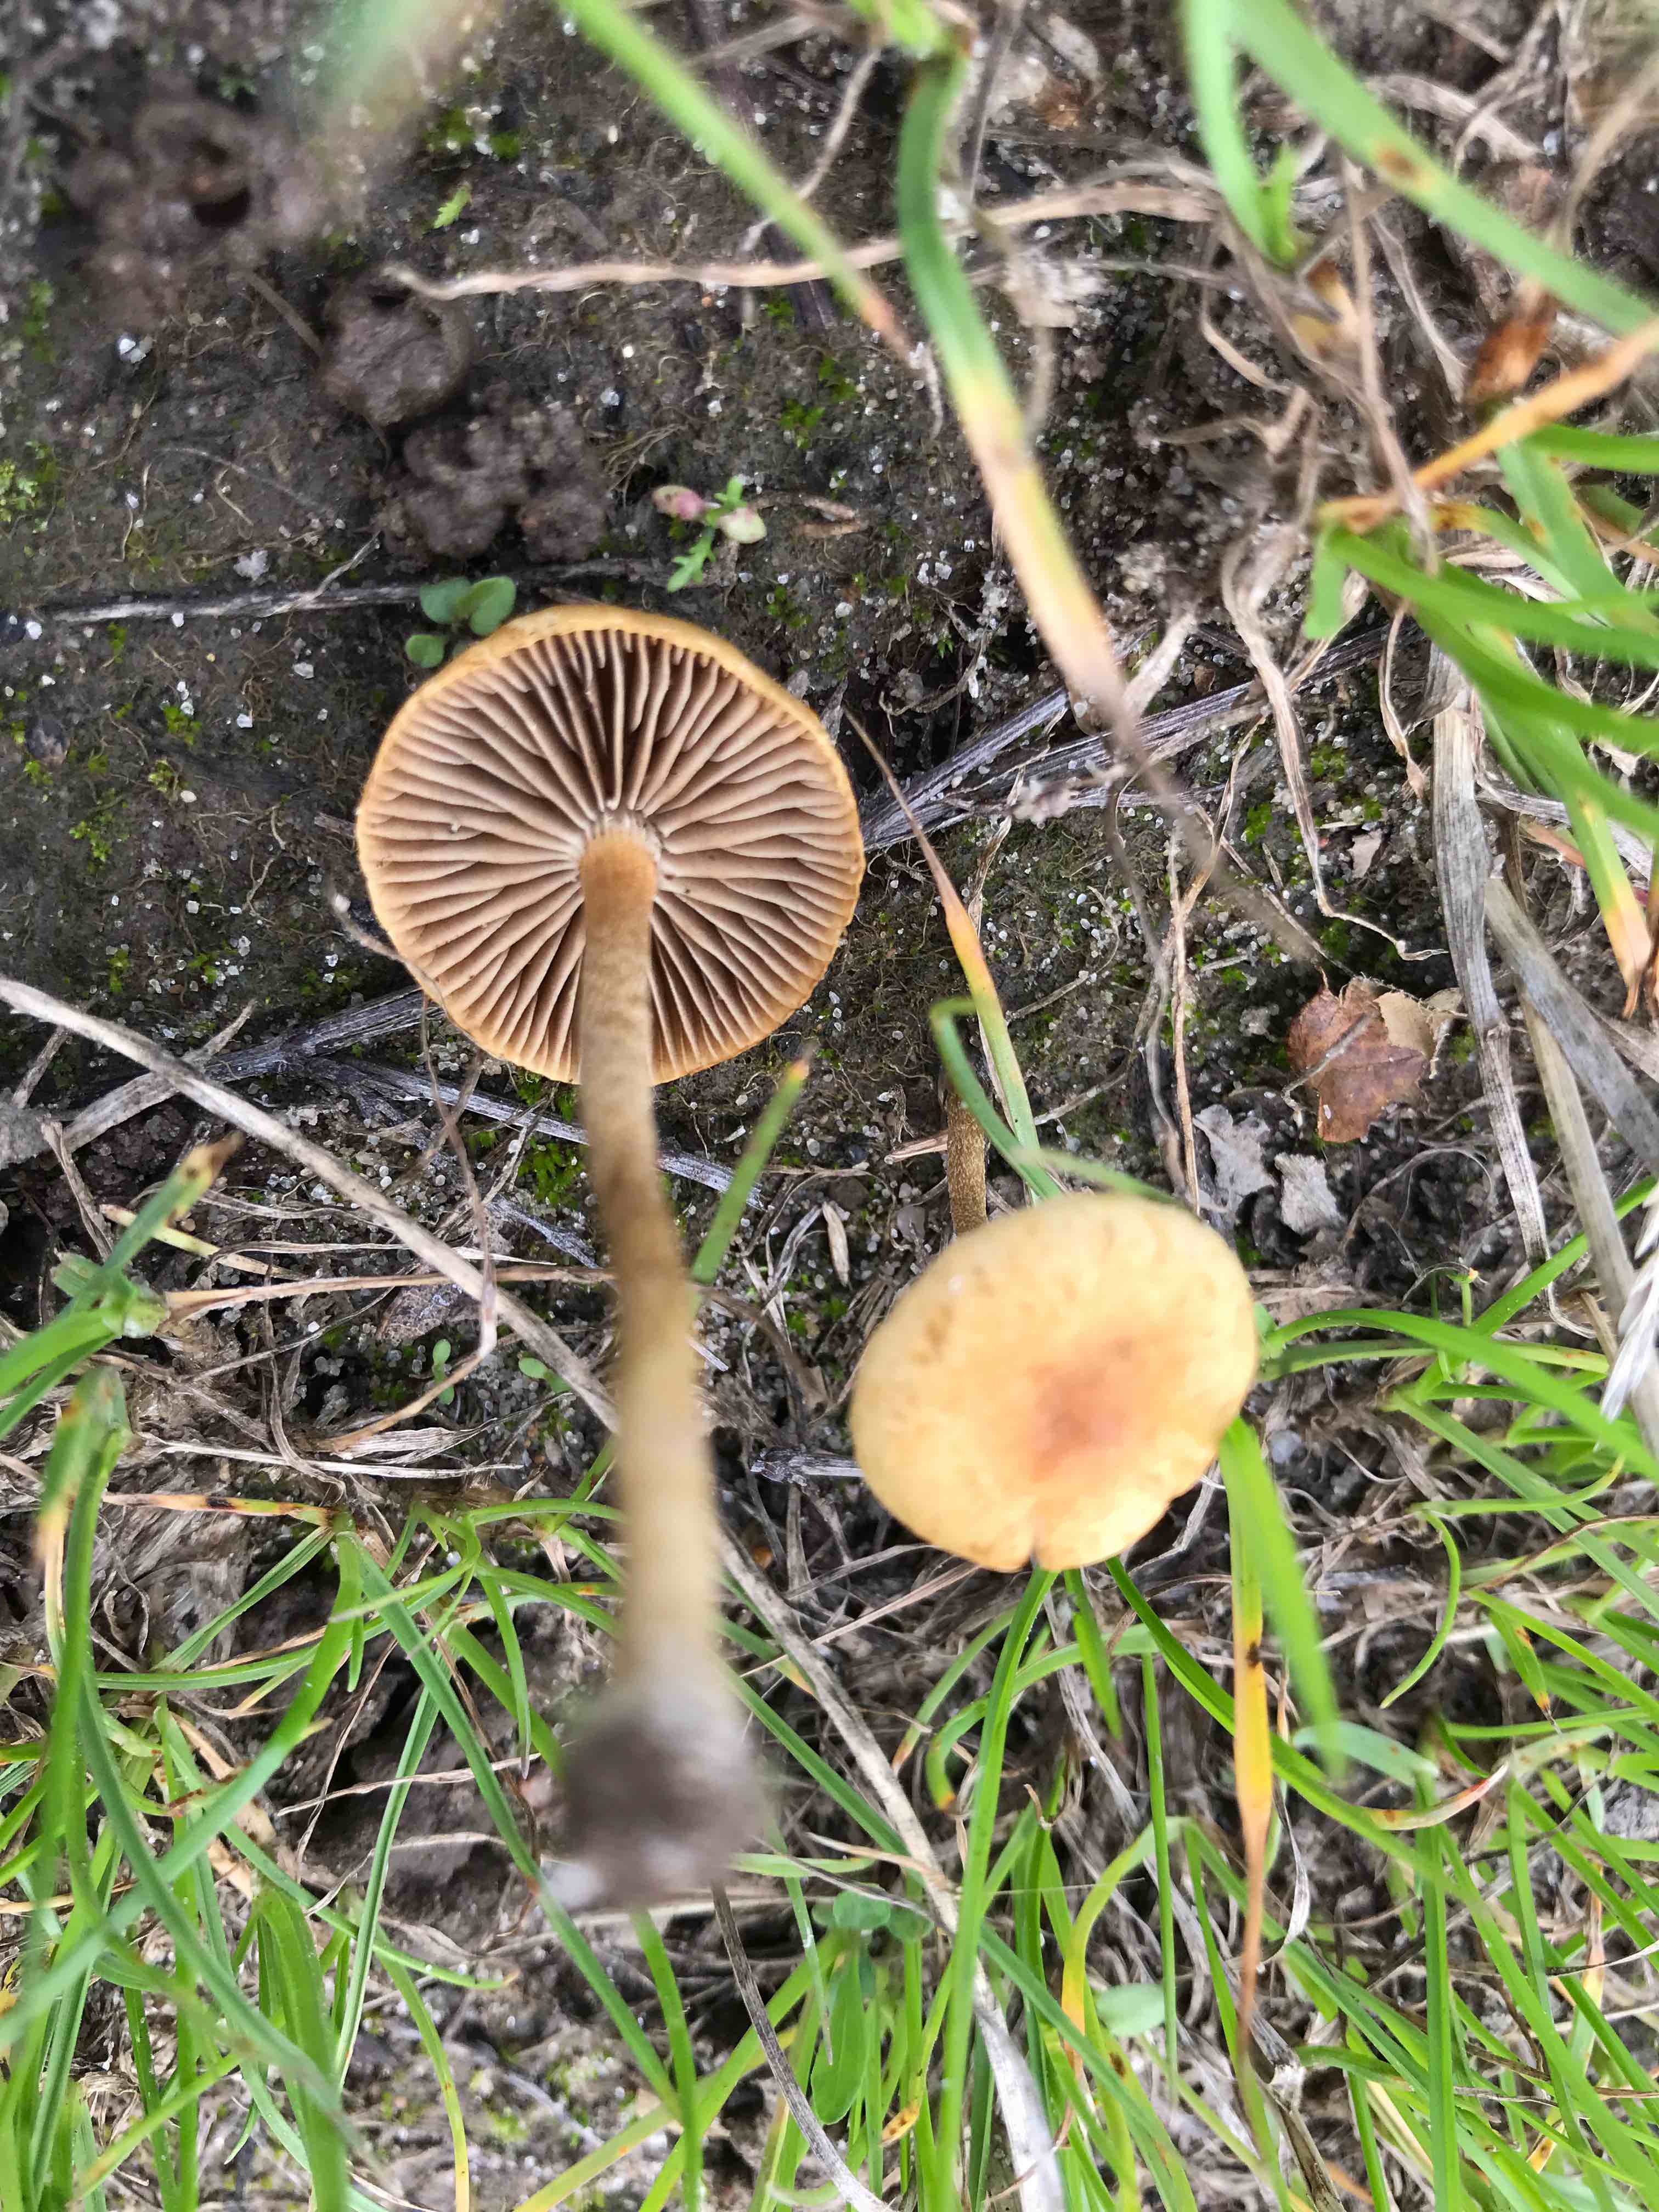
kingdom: Fungi
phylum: Basidiomycota
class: Agaricomycetes
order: Agaricales
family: Strophariaceae
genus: Agrocybe
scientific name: Agrocybe pediades
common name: almindelig agerhat
